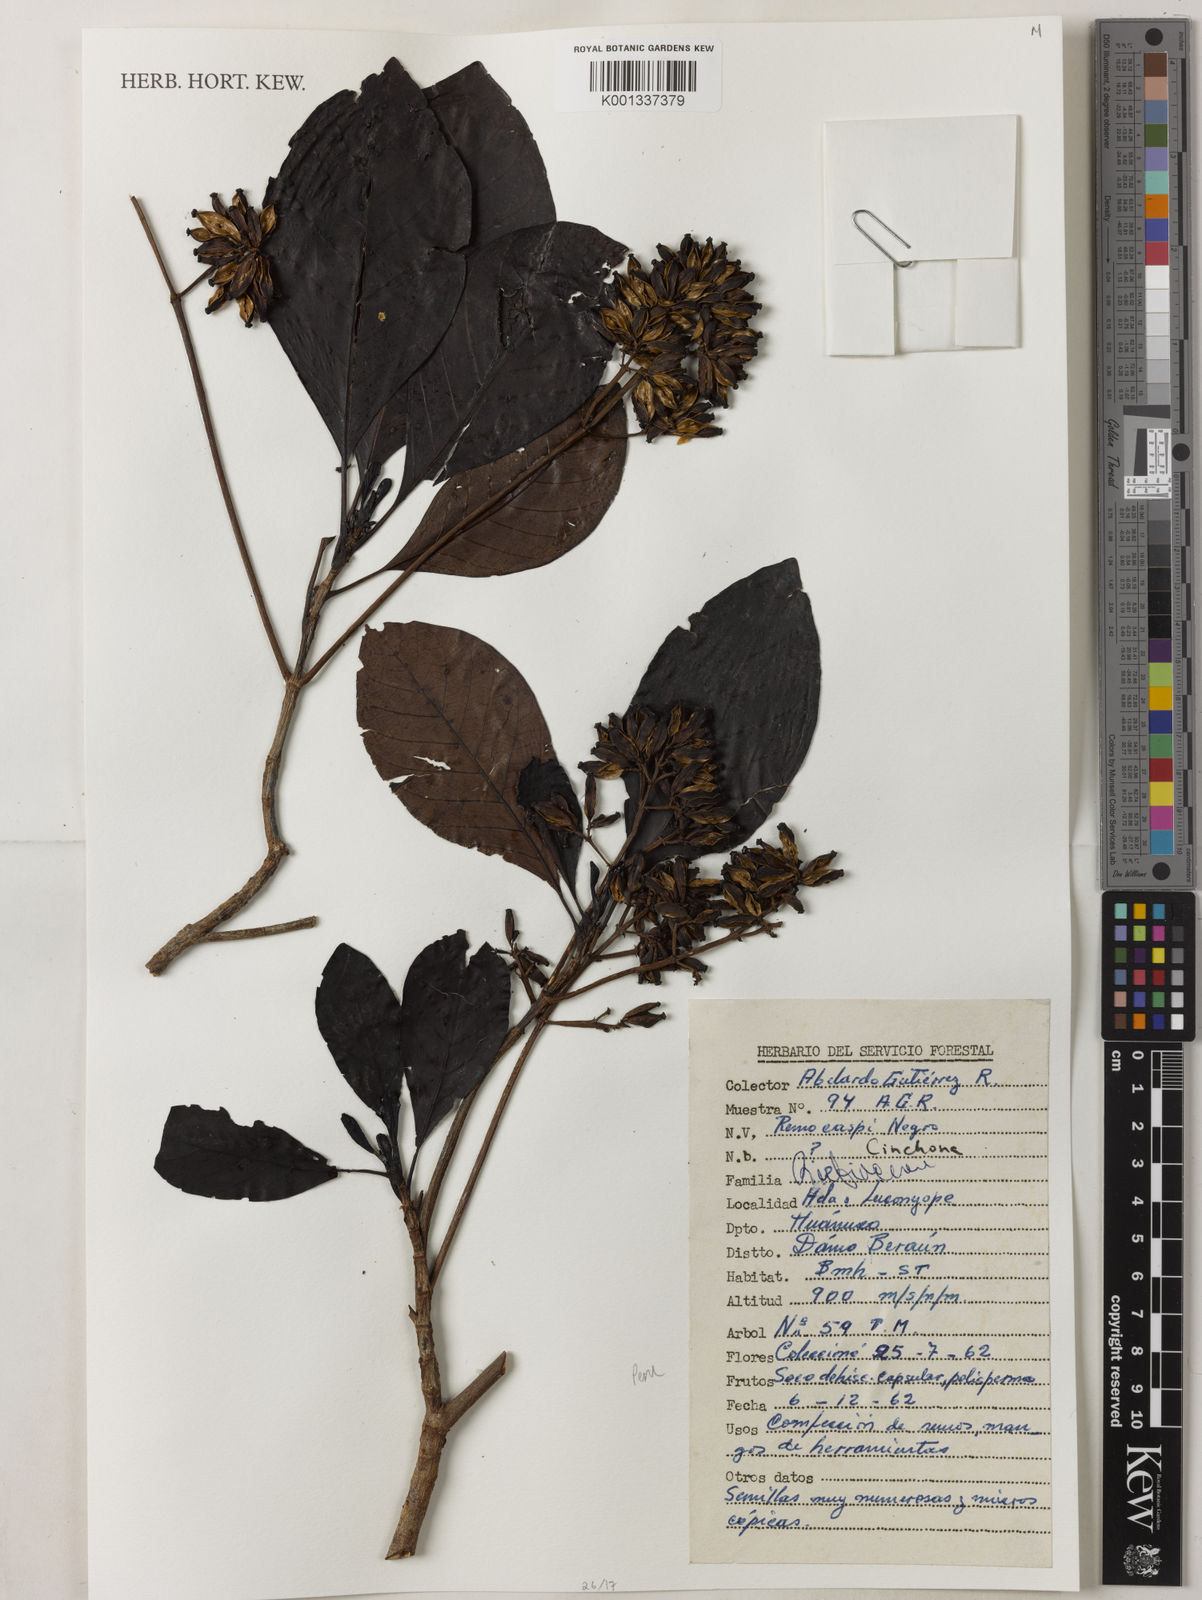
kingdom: Plantae
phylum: Tracheophyta
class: Magnoliopsida
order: Gentianales
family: Rubiaceae
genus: Cinchona
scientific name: Cinchona
